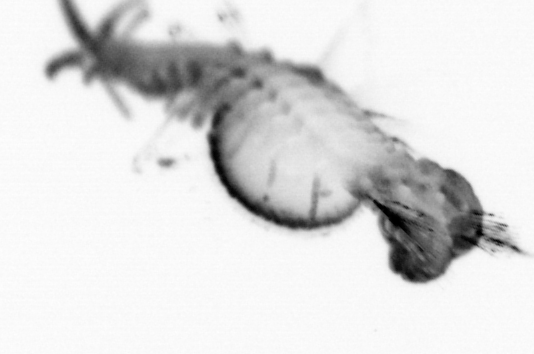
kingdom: Animalia
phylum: Annelida
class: Polychaeta
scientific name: Polychaeta
